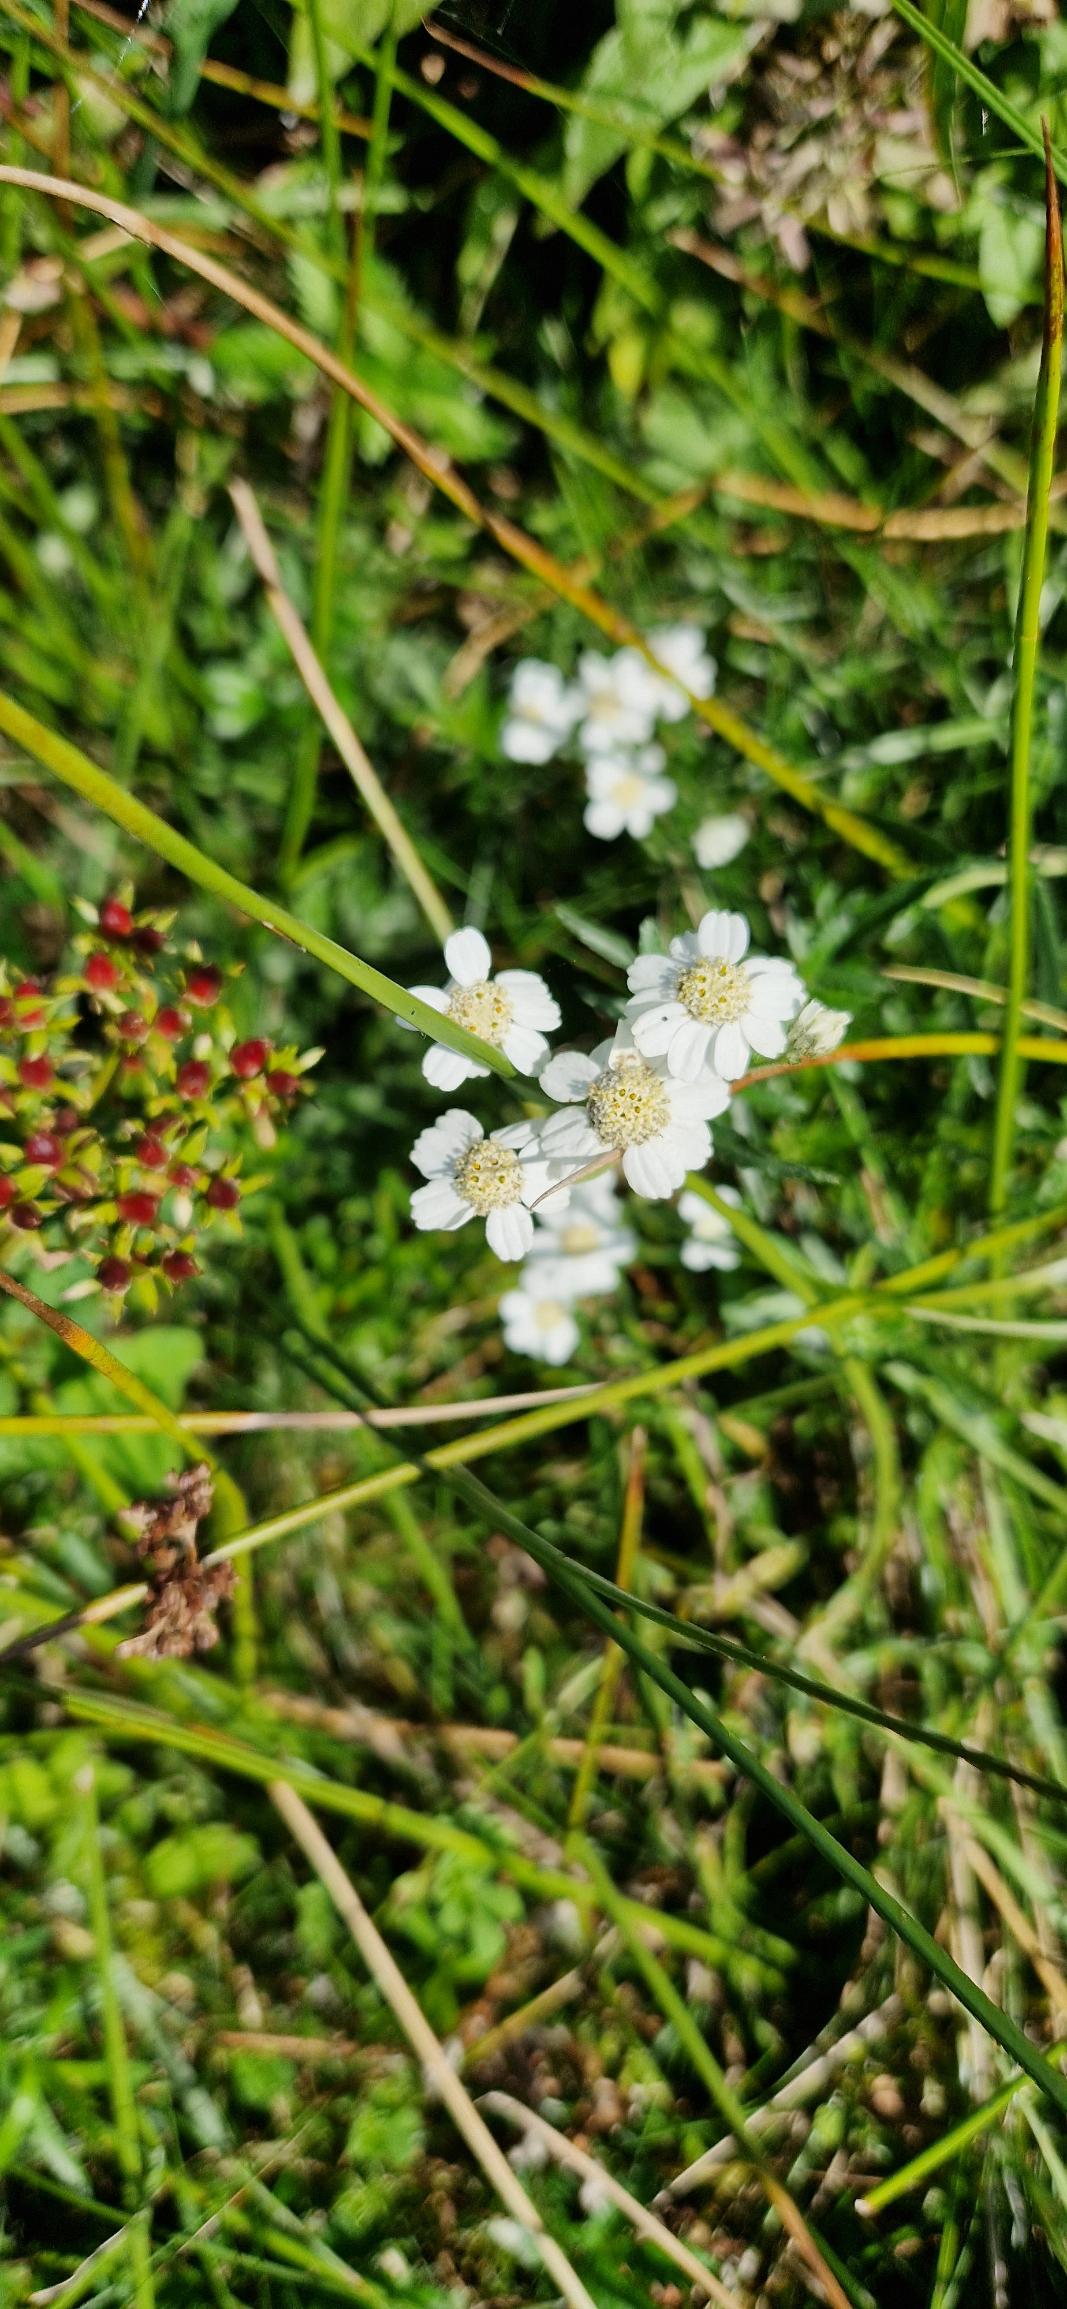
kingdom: Plantae
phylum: Tracheophyta
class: Magnoliopsida
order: Asterales
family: Asteraceae
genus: Achillea
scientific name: Achillea ptarmica
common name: Nyse-røllike
